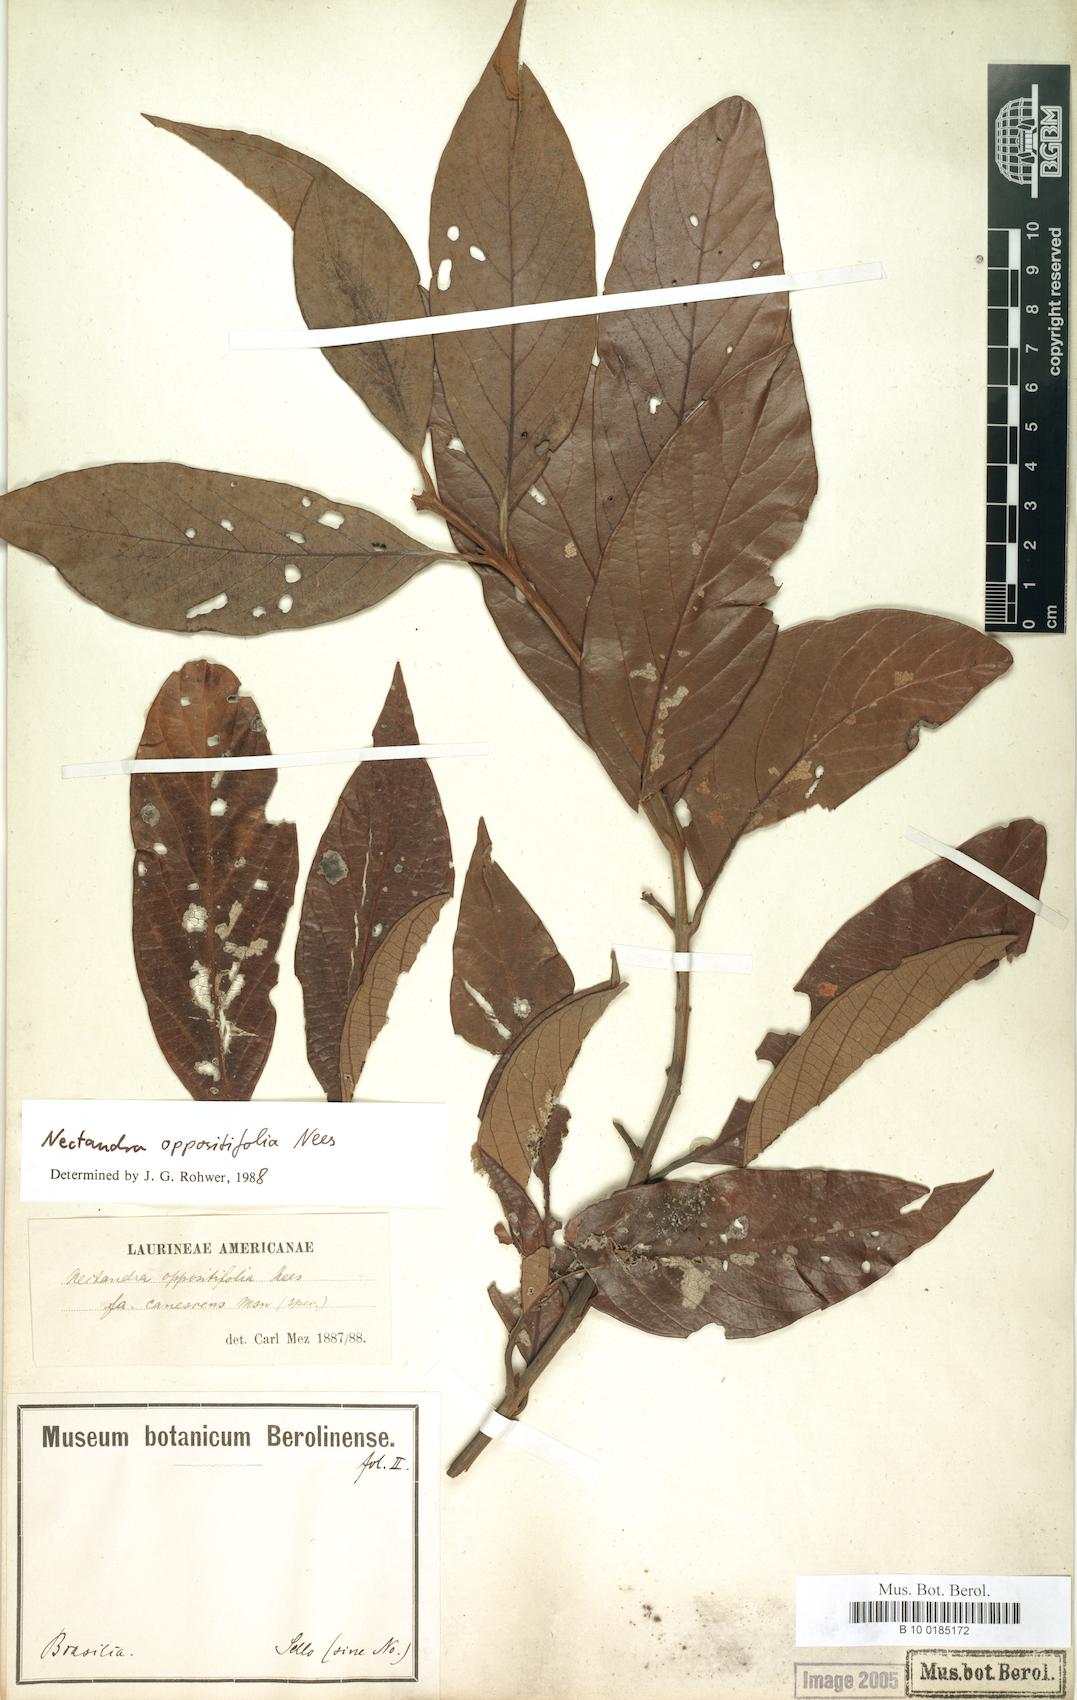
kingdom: Plantae
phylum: Tracheophyta
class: Magnoliopsida
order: Laurales
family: Lauraceae
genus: Nectandra
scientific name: Nectandra oppositifolia
